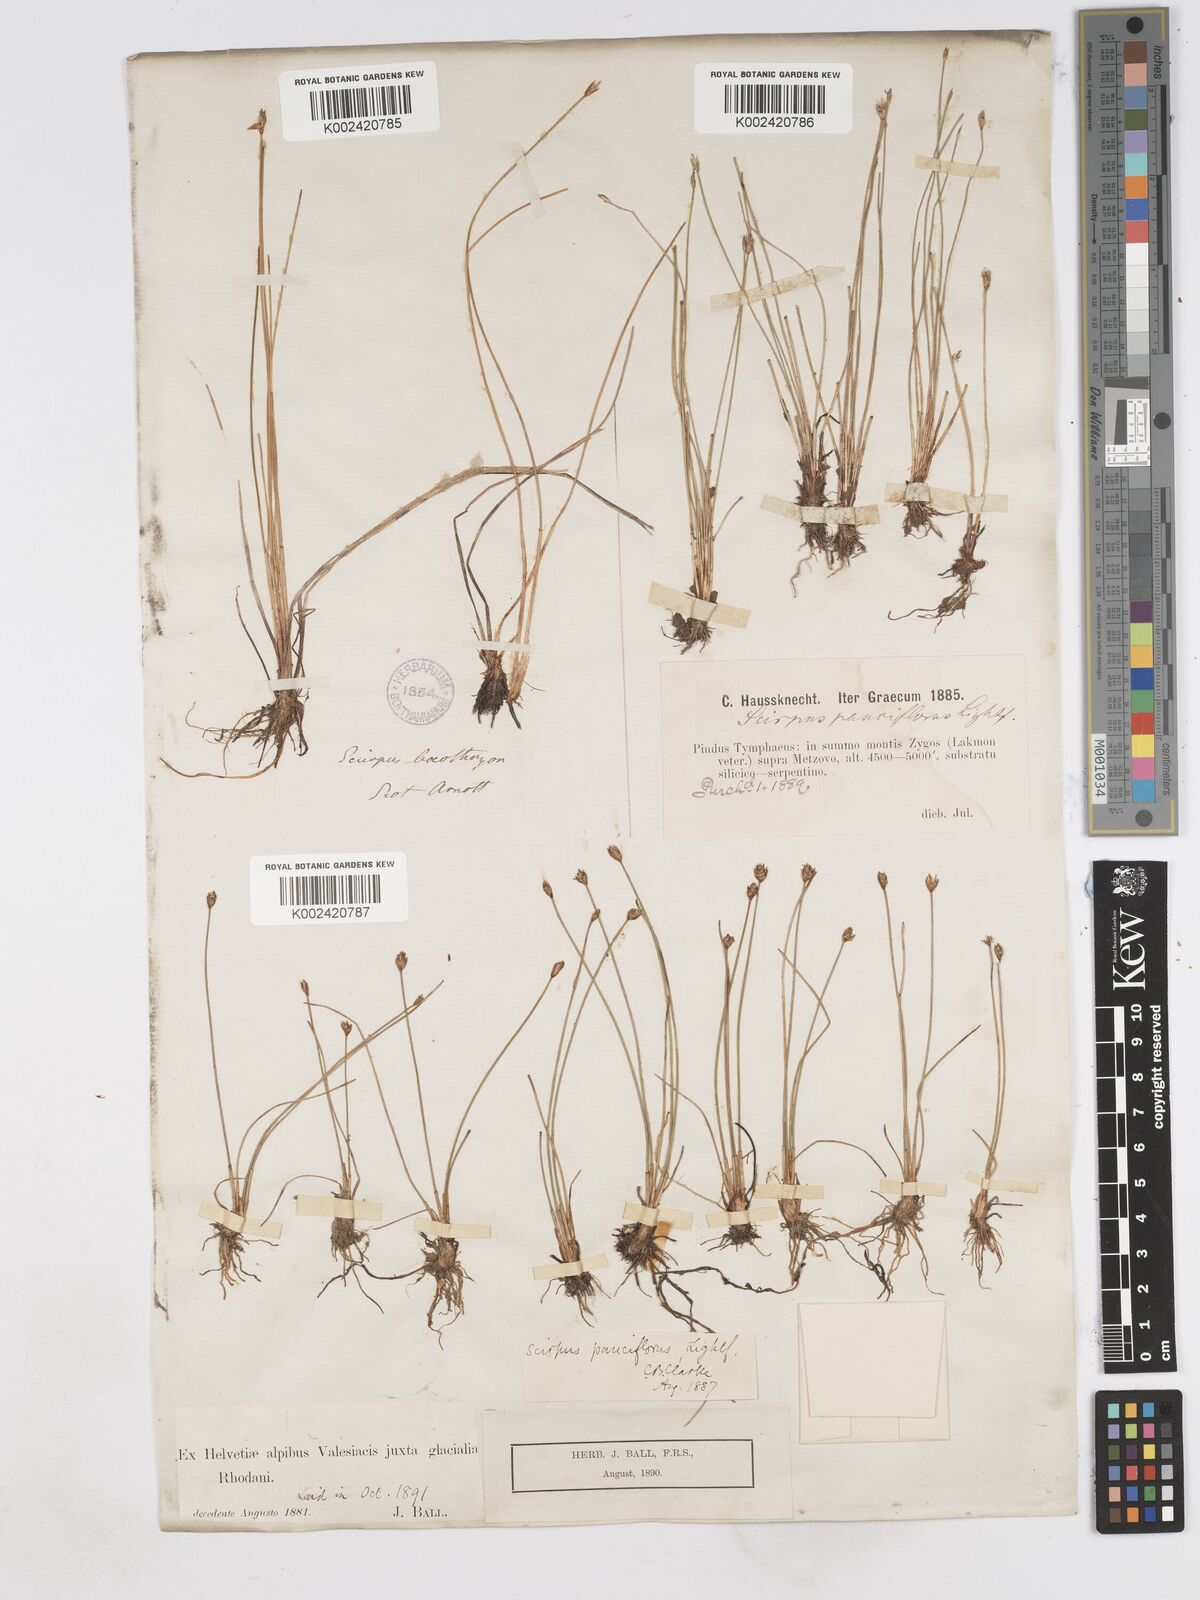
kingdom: Plantae
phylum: Tracheophyta
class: Liliopsida
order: Poales
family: Cyperaceae
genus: Eleocharis
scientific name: Eleocharis quinqueflora
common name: Few-flowered spike-rush
